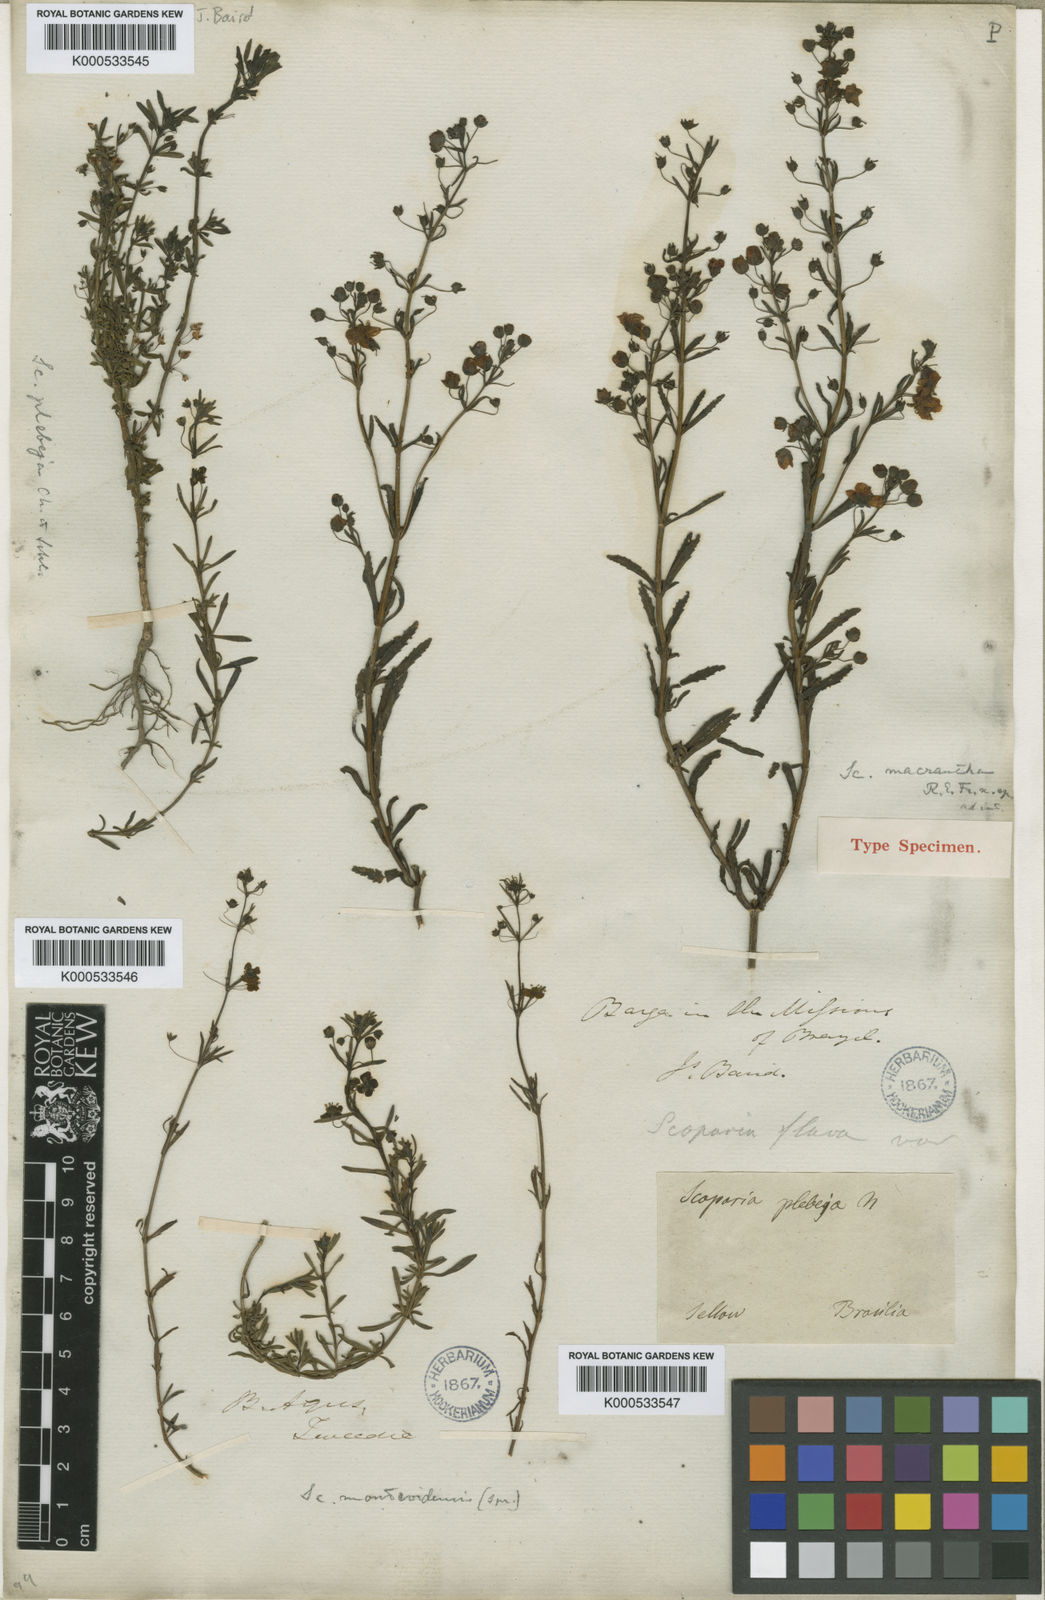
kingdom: Plantae
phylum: Tracheophyta
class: Magnoliopsida
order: Lamiales
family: Plantaginaceae
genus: Scoparia
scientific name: Scoparia ericacea
